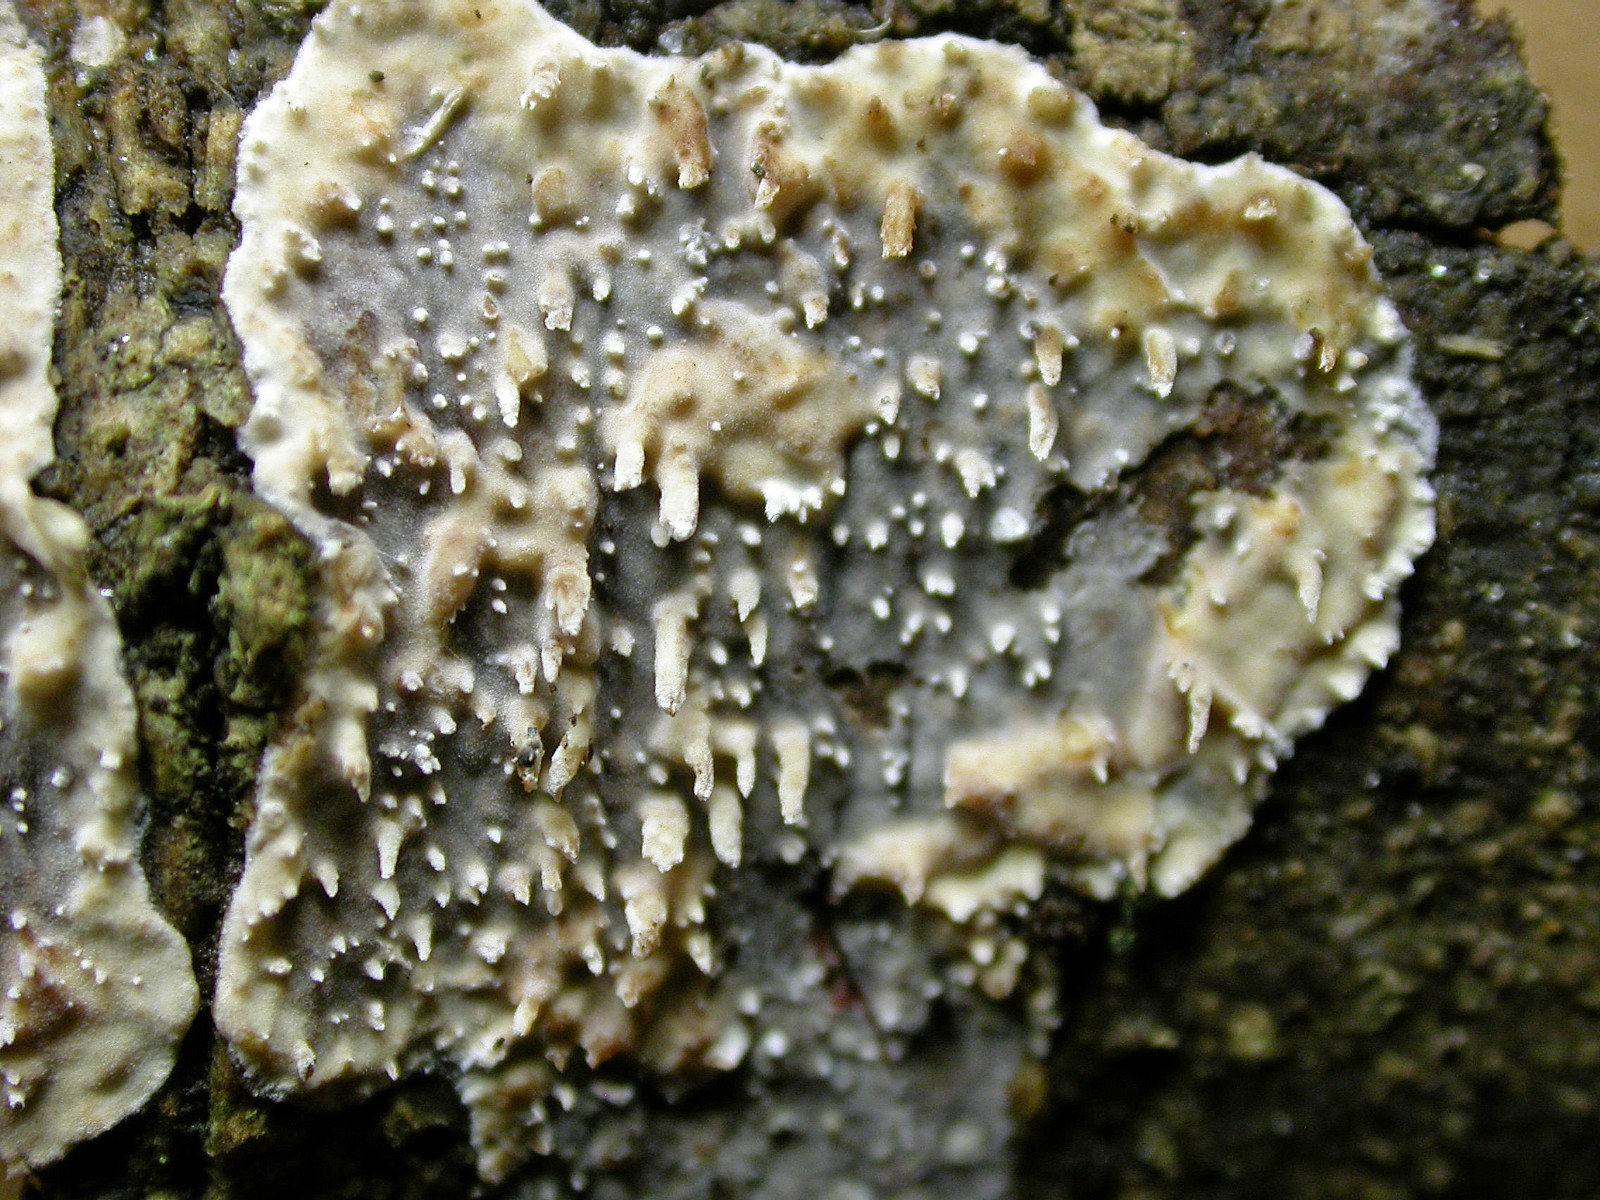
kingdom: Fungi
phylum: Basidiomycota
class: Agaricomycetes
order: Auriculariales
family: Auriculariaceae
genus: Heteroradulum
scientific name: Heteroradulum deglubens
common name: bævreskorpe
